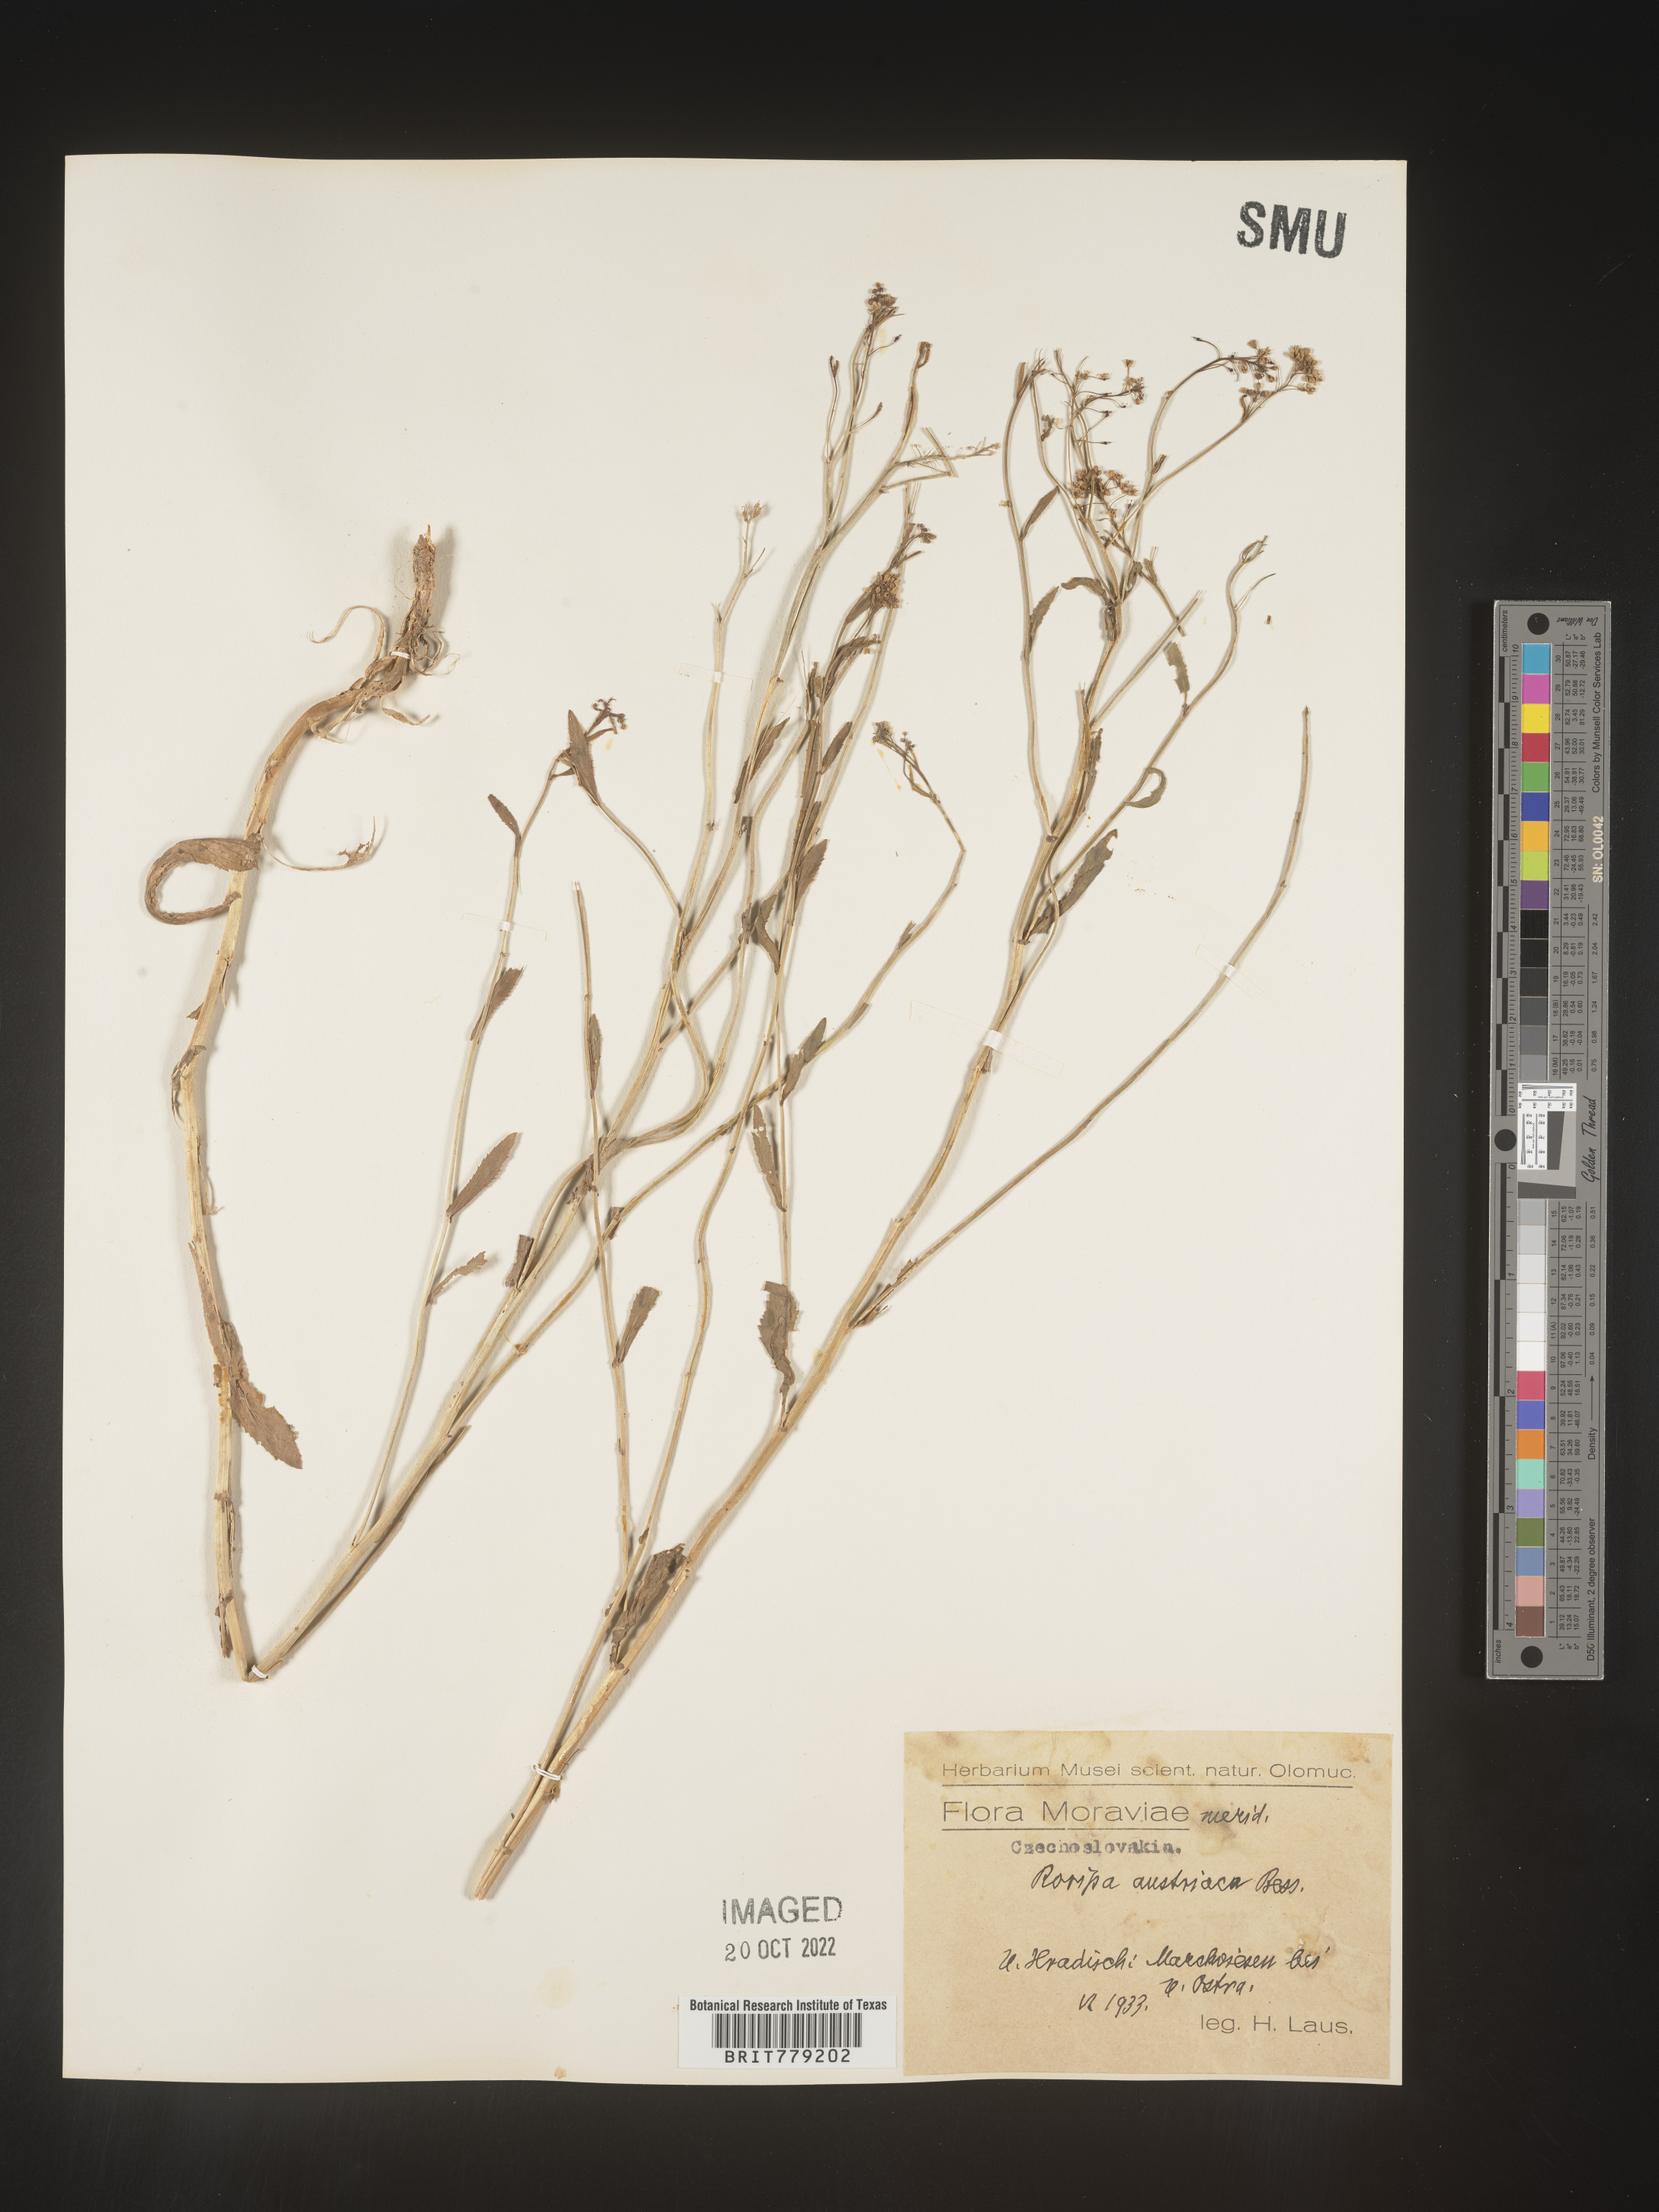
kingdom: Plantae
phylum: Tracheophyta
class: Magnoliopsida
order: Brassicales
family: Brassicaceae
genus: Rorippa
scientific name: Rorippa
